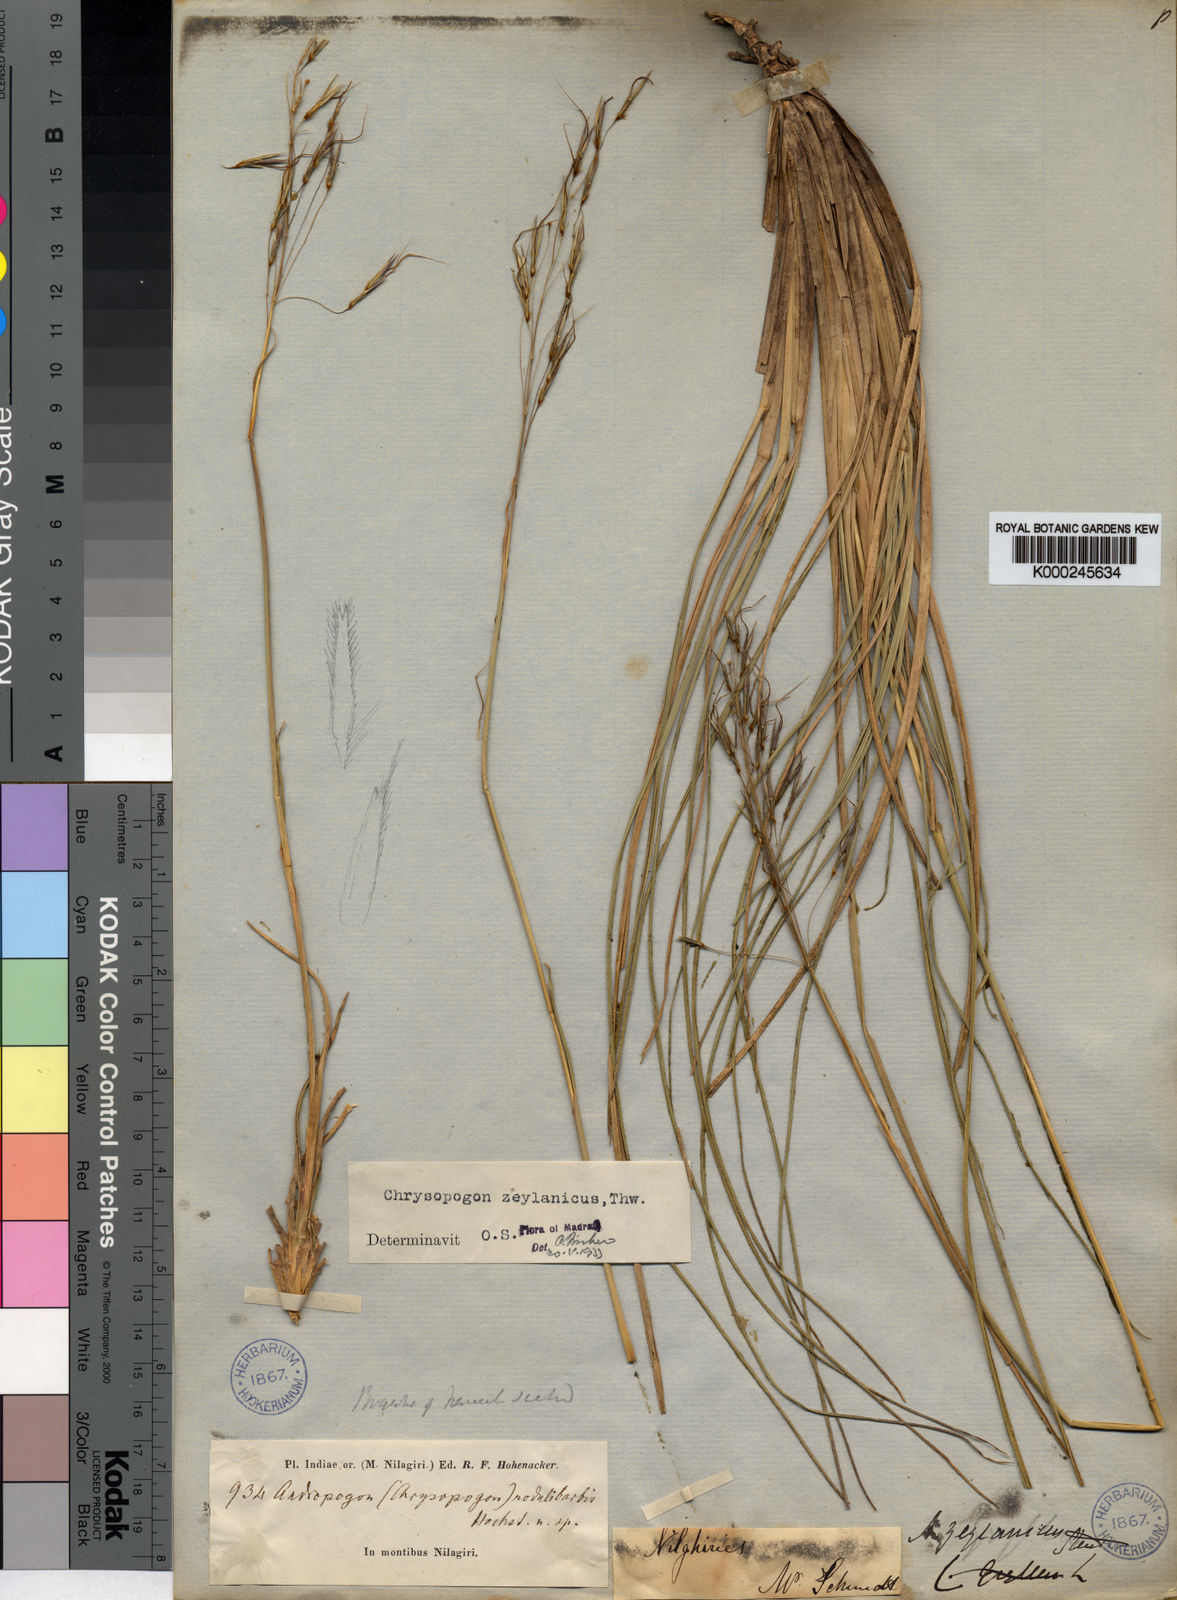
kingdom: Plantae
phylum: Tracheophyta
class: Liliopsida
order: Poales
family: Poaceae
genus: Chrysopogon
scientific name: Chrysopogon nodulibarbis
